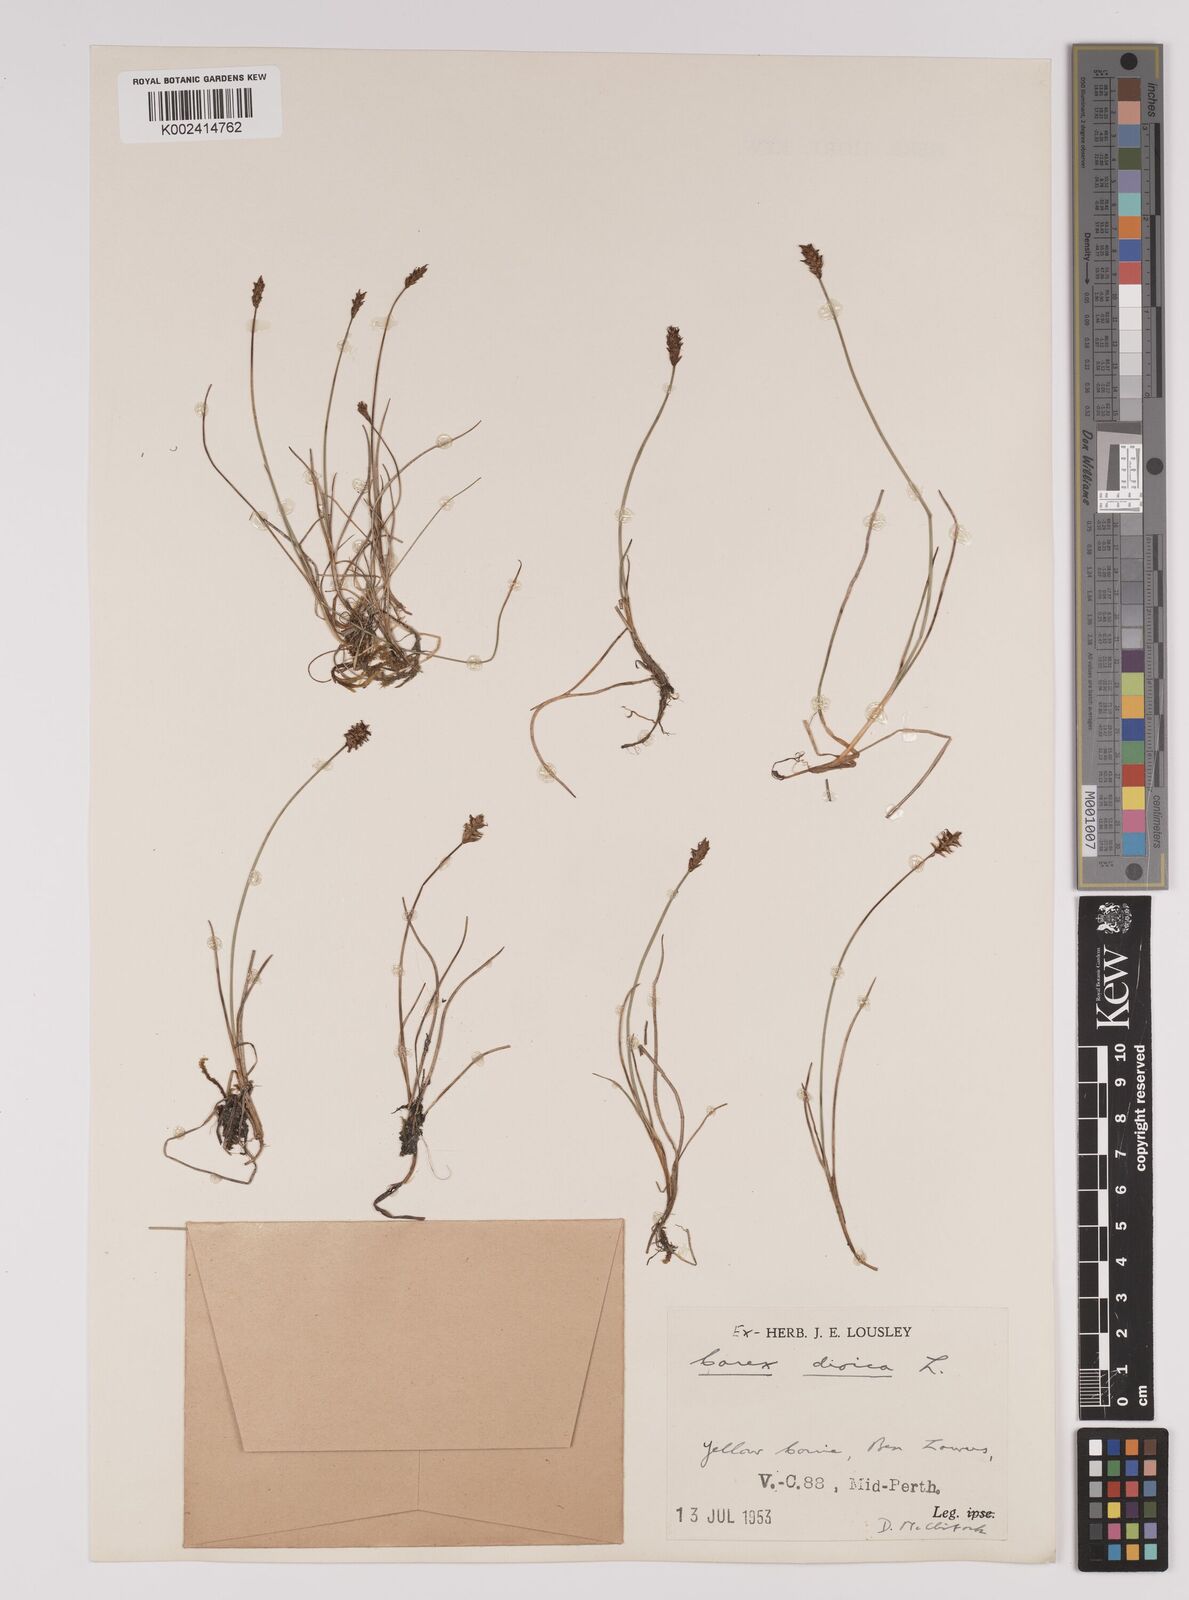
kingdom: Plantae
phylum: Tracheophyta
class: Liliopsida
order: Poales
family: Cyperaceae
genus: Carex
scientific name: Carex dioica
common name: Dioecious sedge
